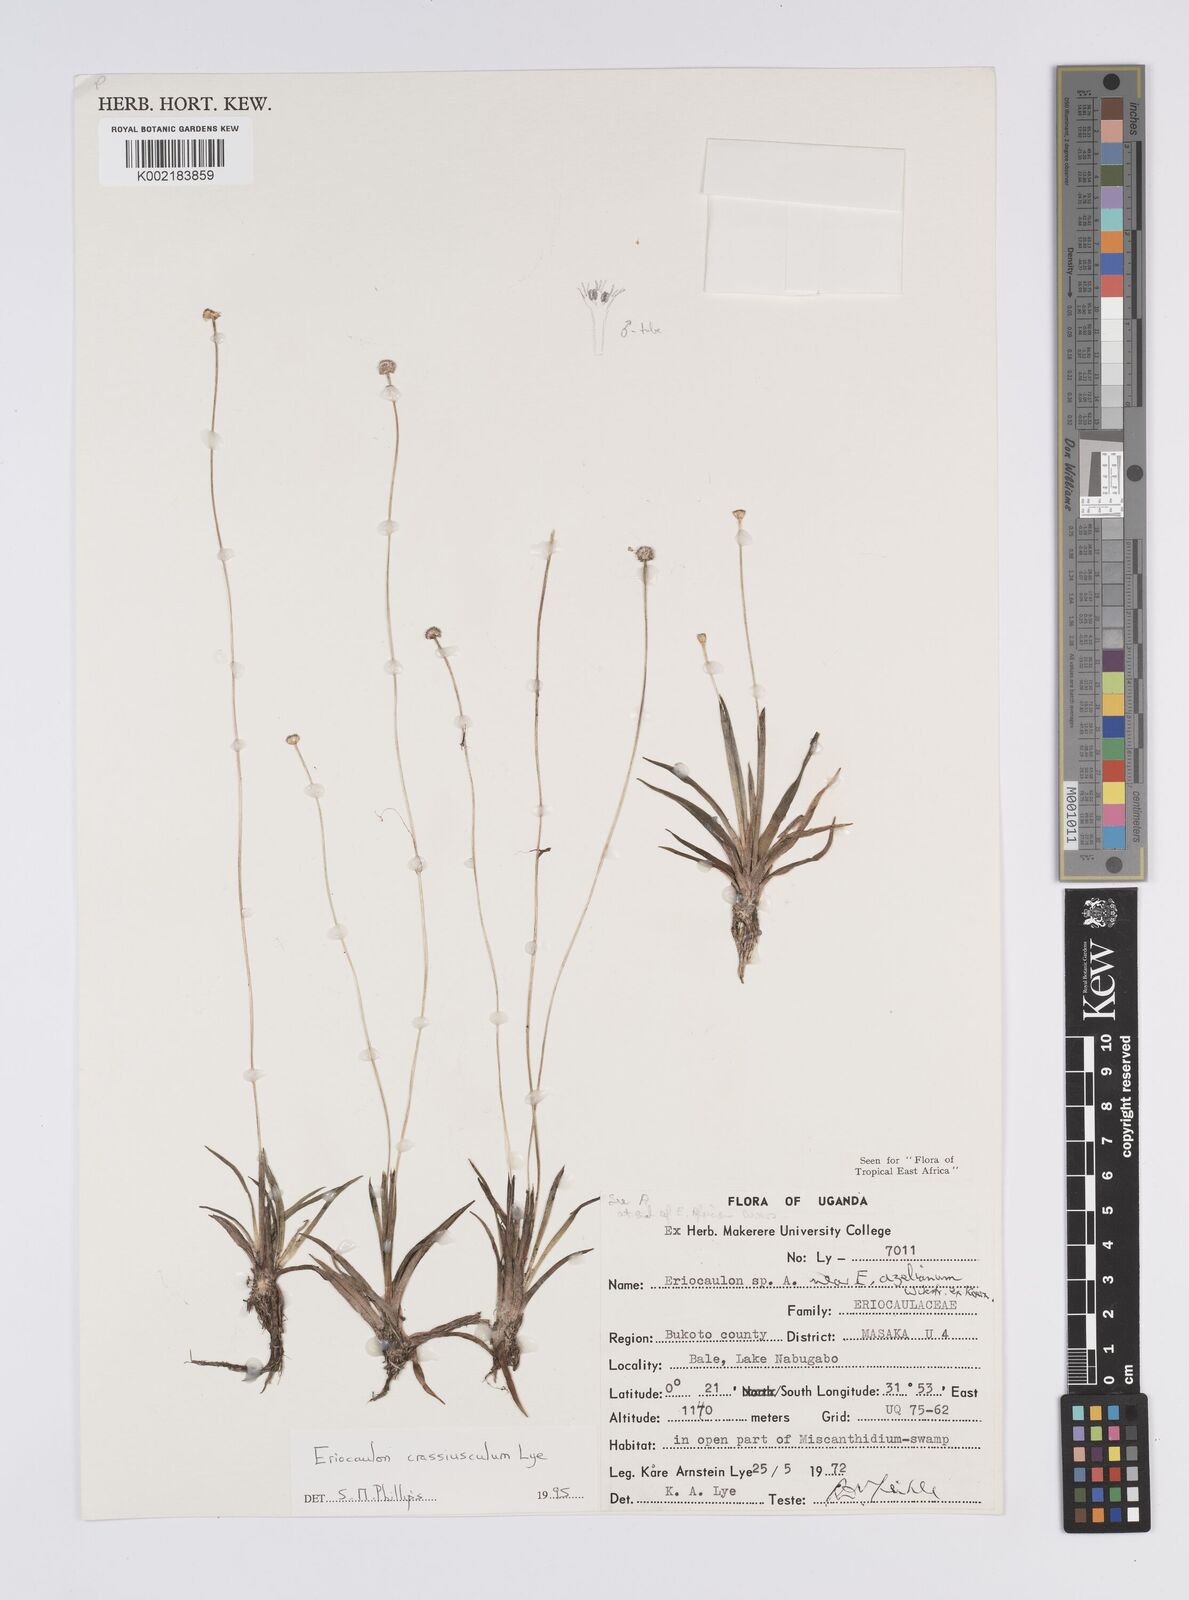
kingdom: Plantae
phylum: Tracheophyta
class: Liliopsida
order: Poales
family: Eriocaulaceae
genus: Eriocaulon
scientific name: Eriocaulon crassiusculum
